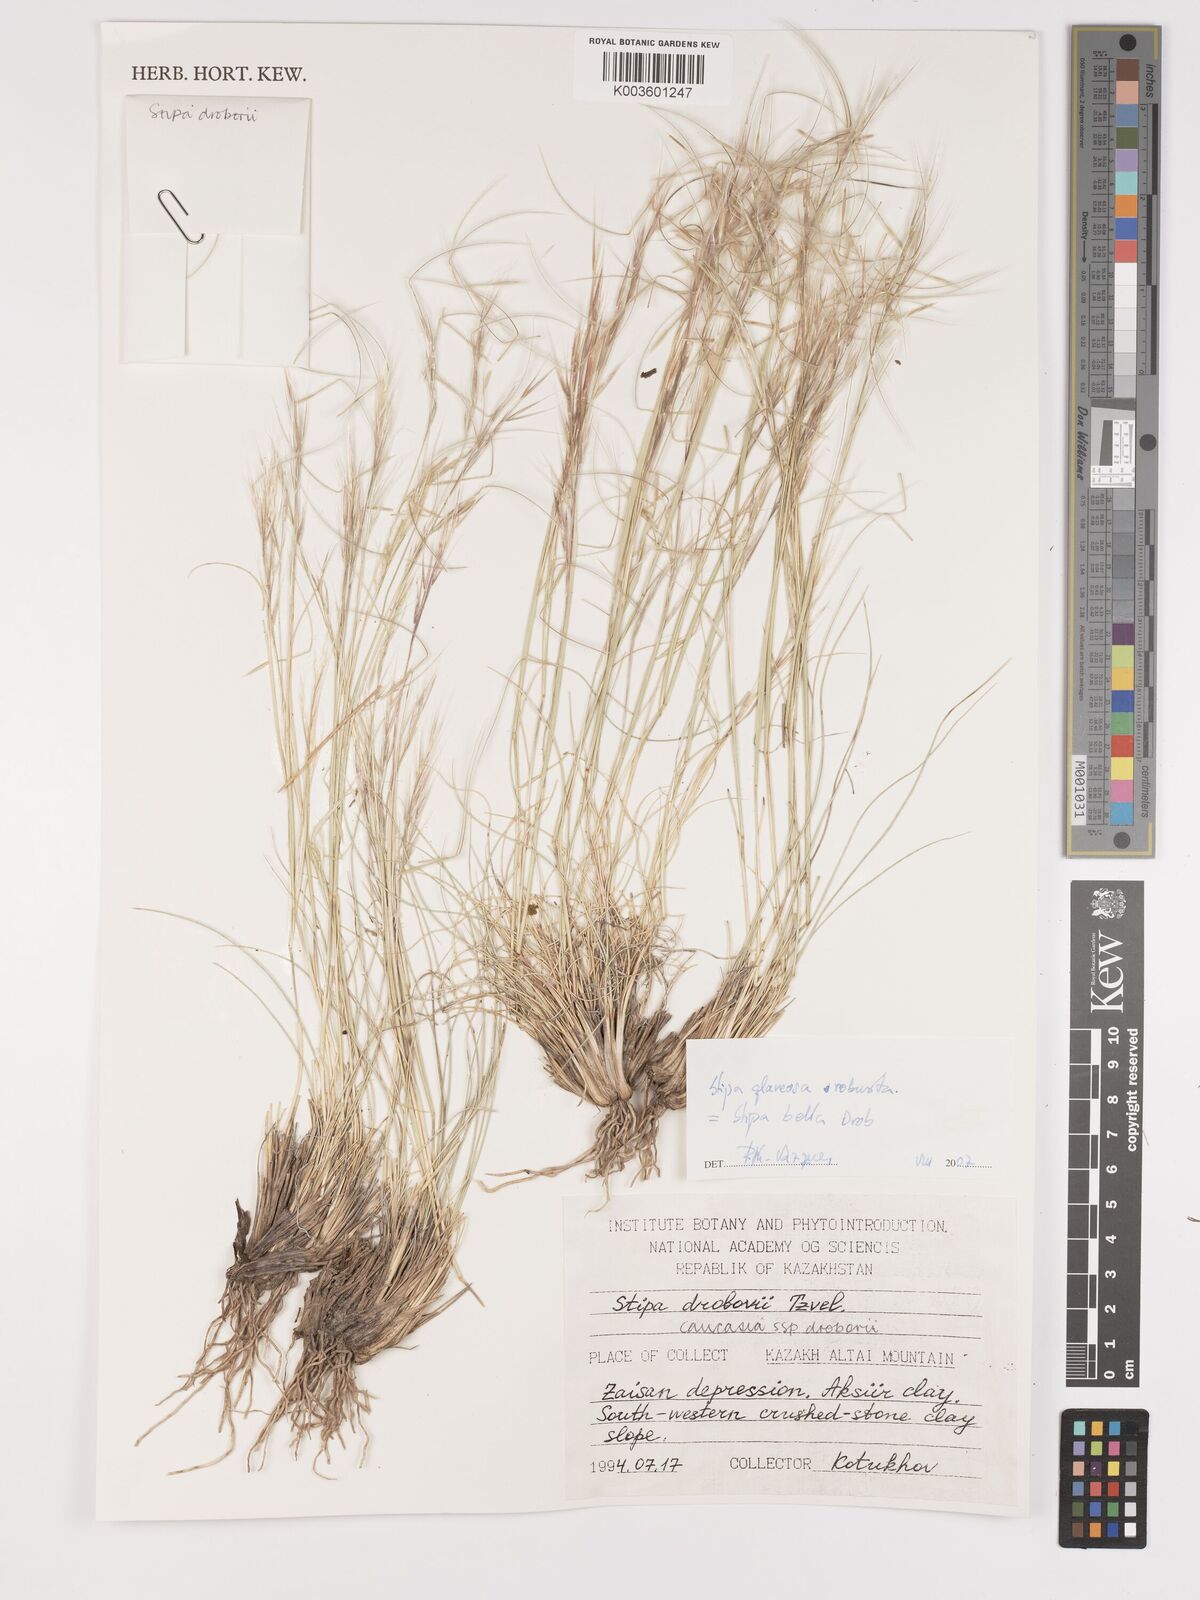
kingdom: Plantae
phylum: Tracheophyta
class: Liliopsida
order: Poales
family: Poaceae
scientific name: Poaceae
